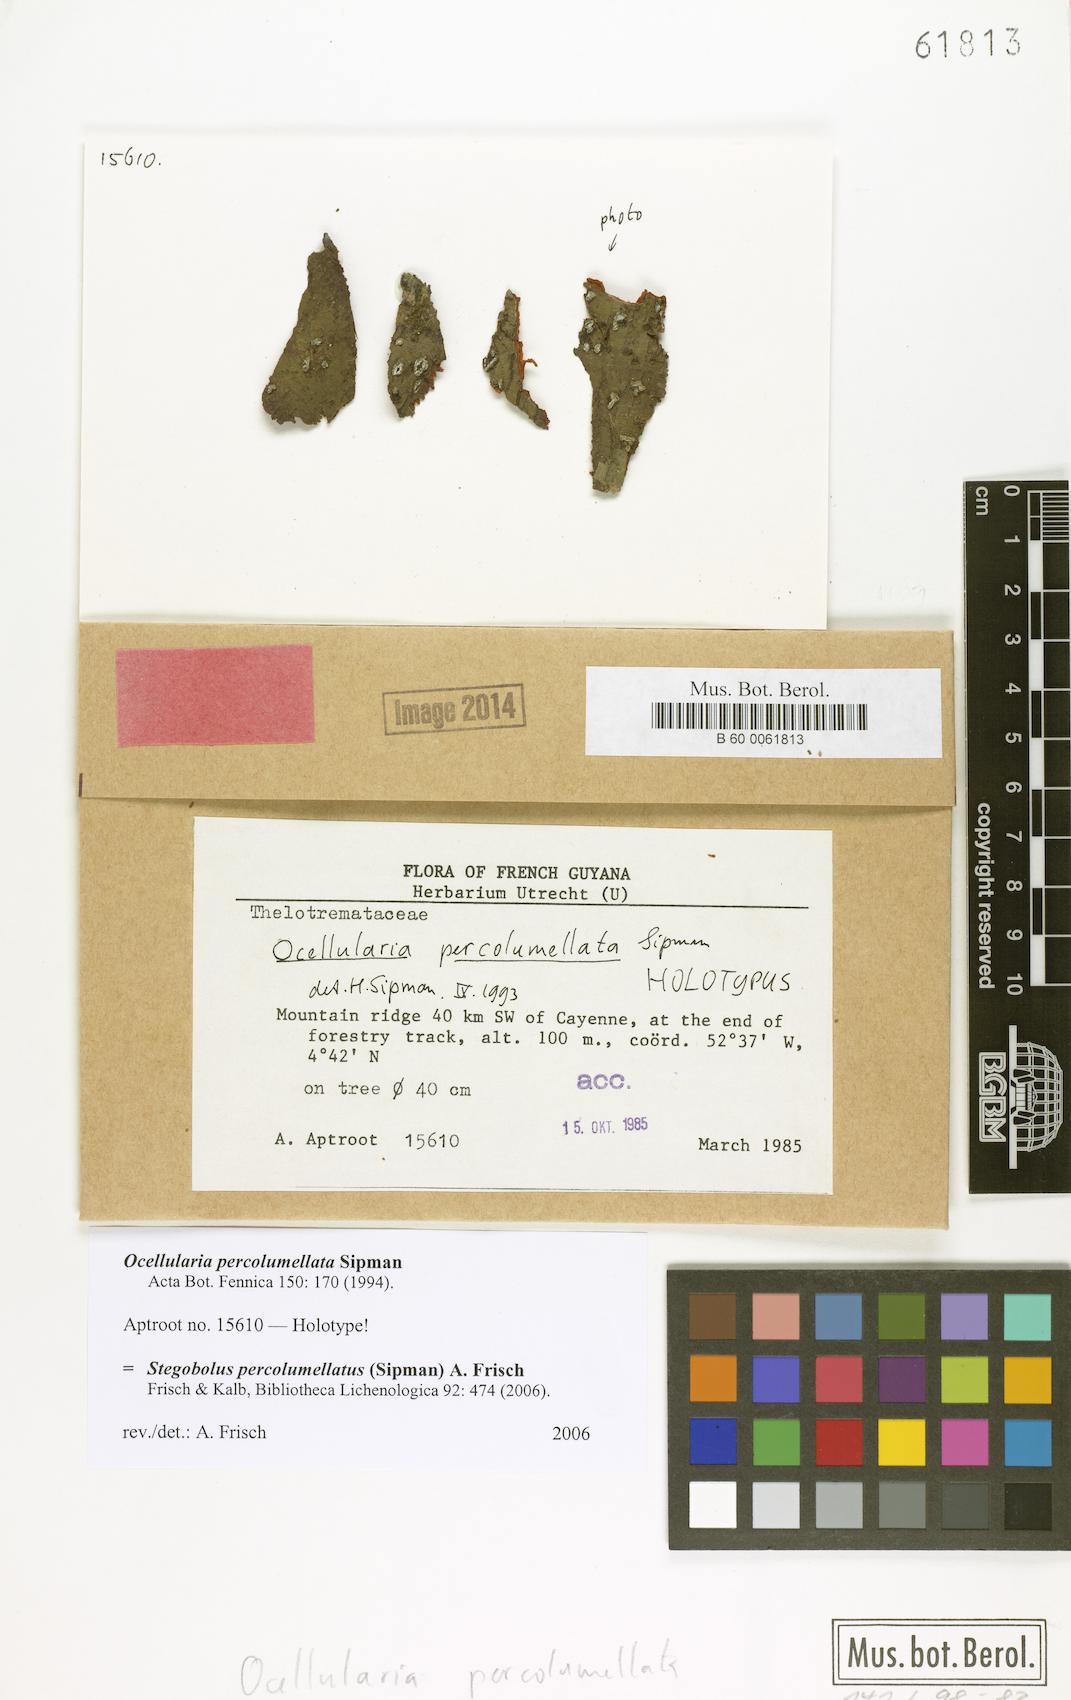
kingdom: Fungi
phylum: Ascomycota
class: Lecanoromycetes
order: Ostropales
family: Graphidaceae
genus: Stegobolus
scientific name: Stegobolus percolumellatus
